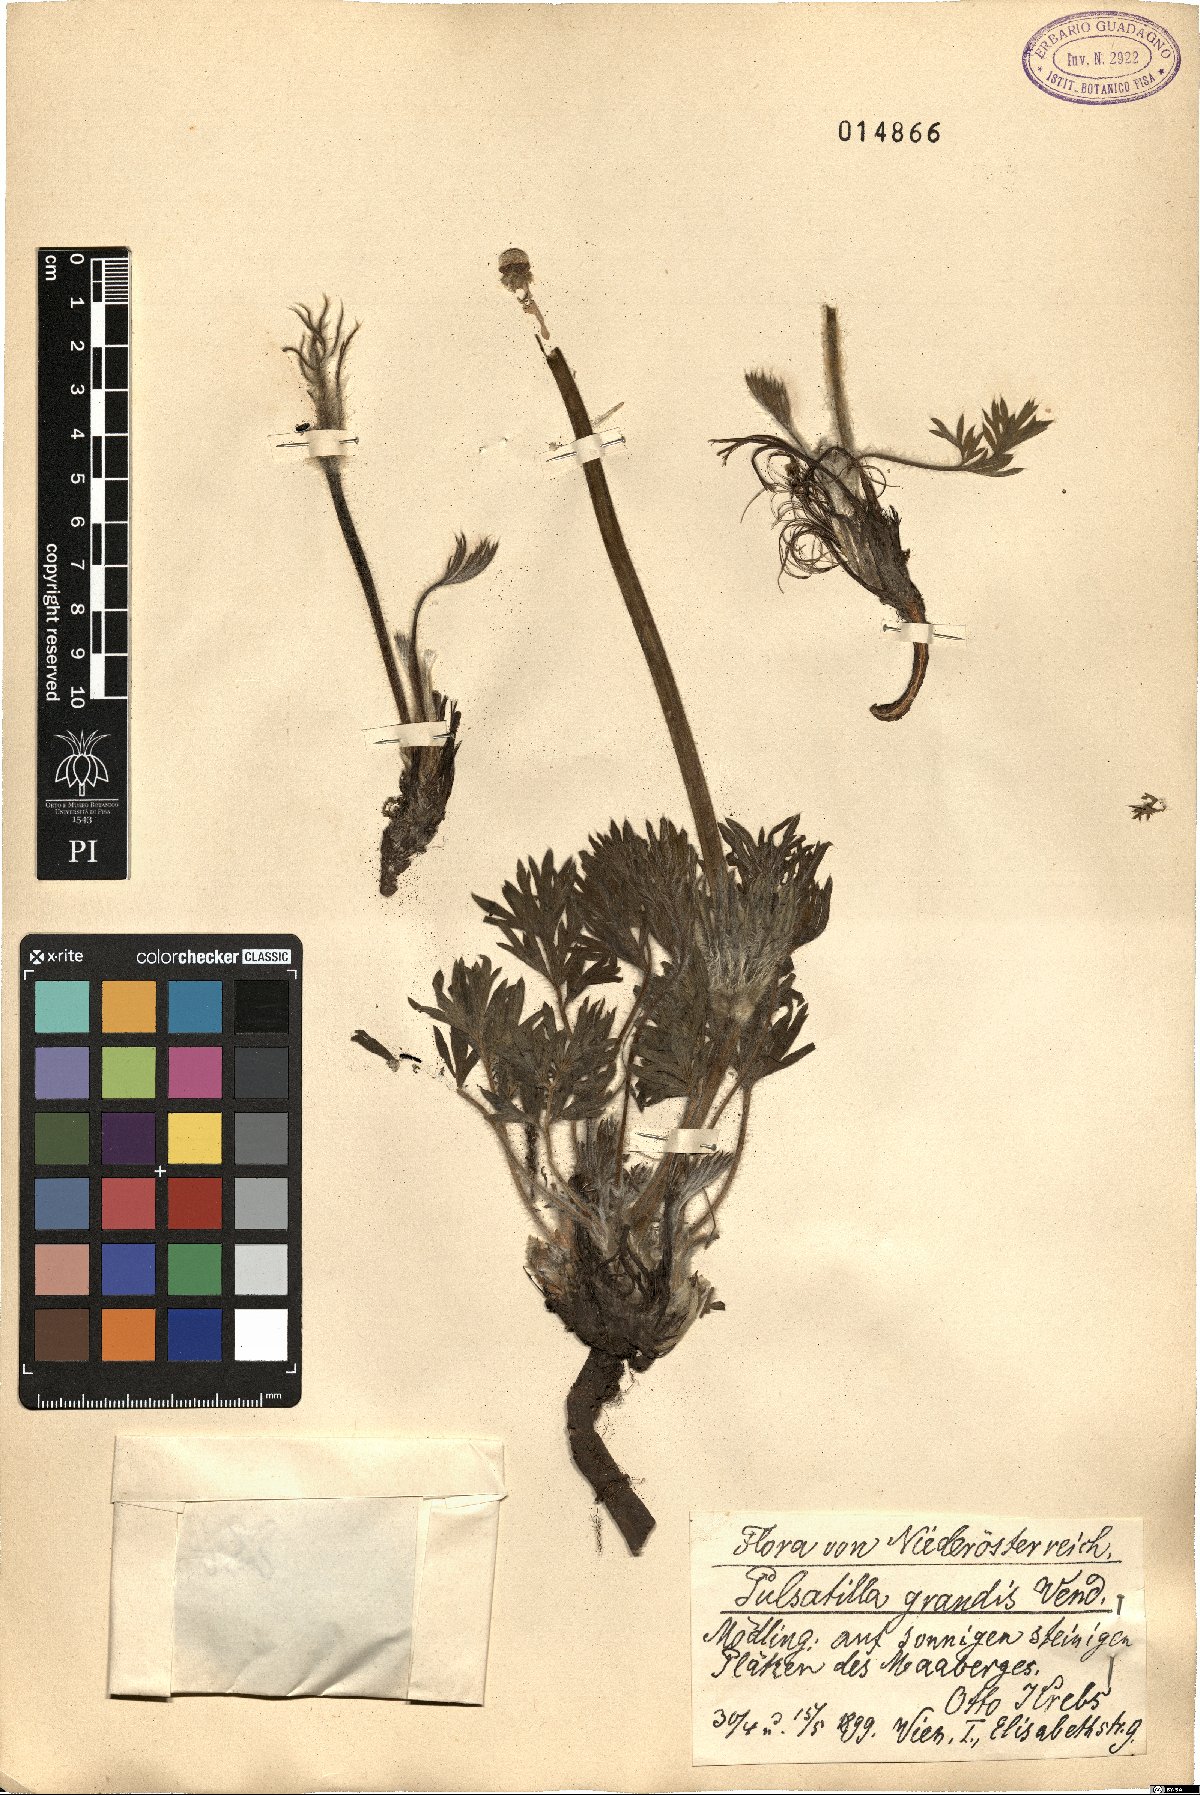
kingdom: Plantae
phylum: Tracheophyta
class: Magnoliopsida
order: Ranunculales
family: Ranunculaceae
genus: Pulsatilla
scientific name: Pulsatilla grandis
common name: Greater pasque flower
